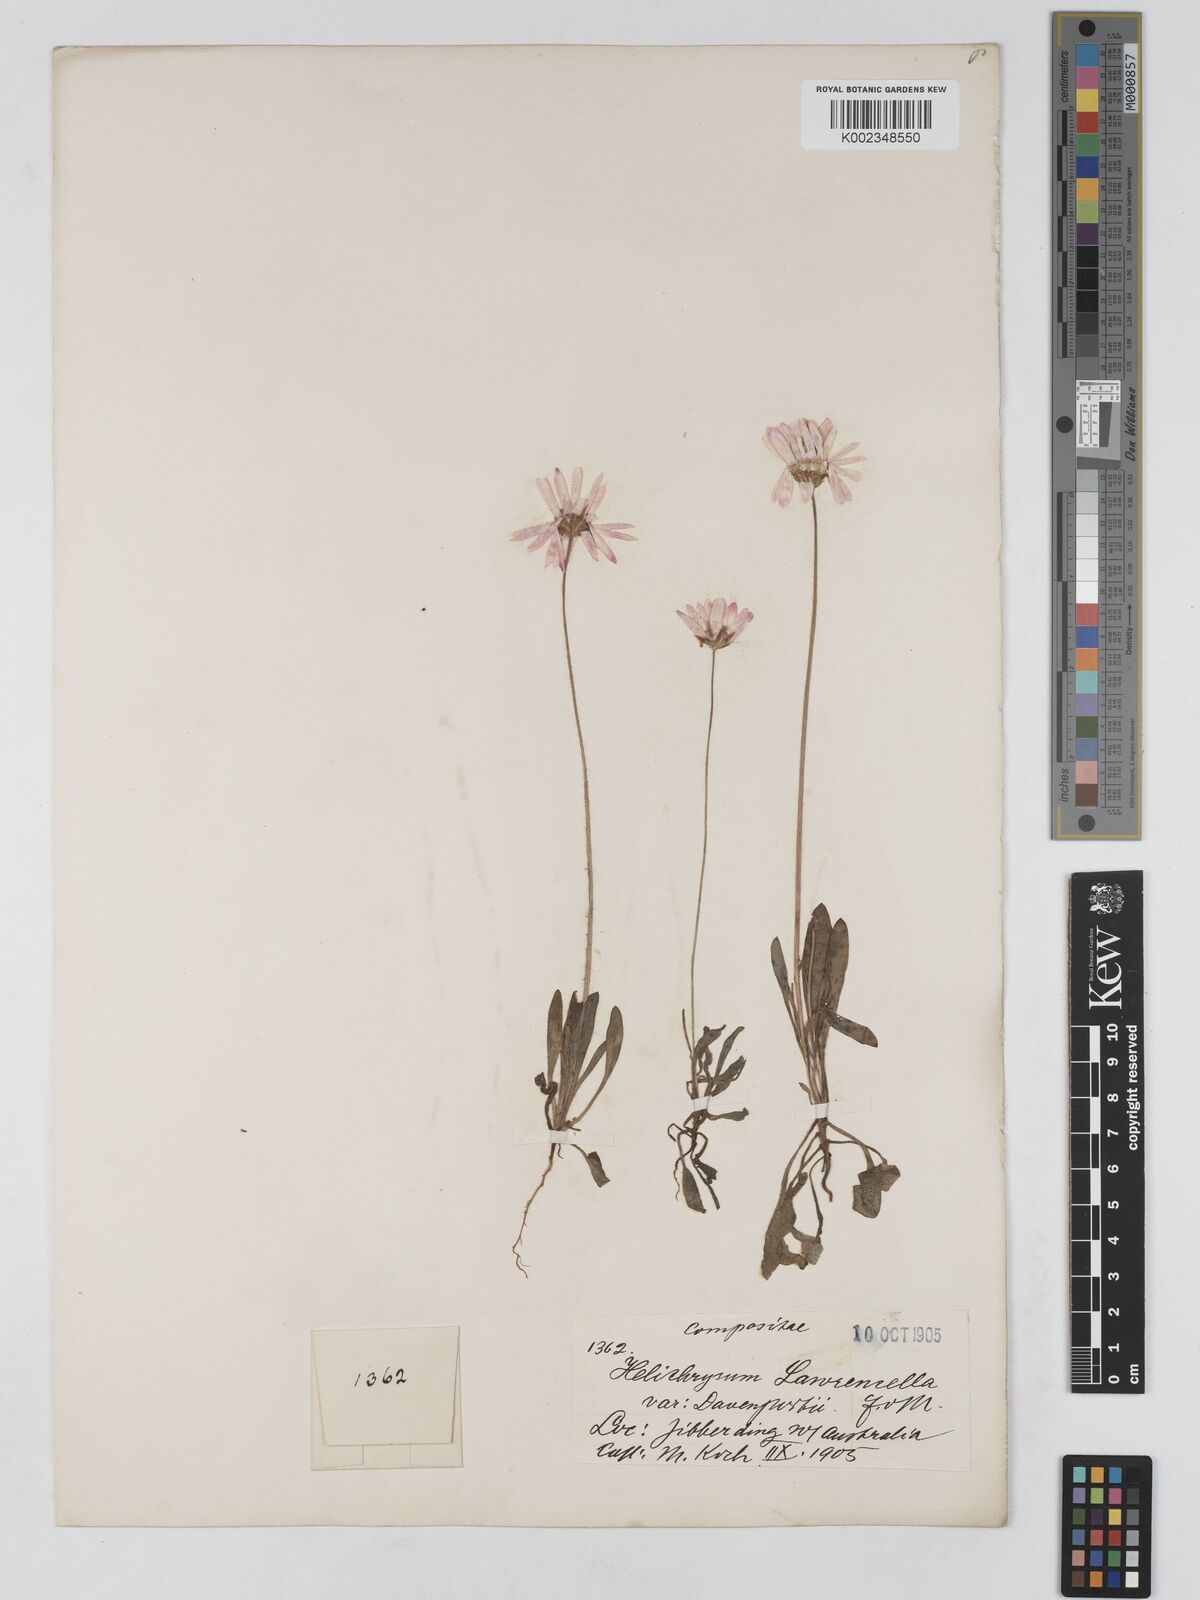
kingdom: Plantae
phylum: Tracheophyta
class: Magnoliopsida
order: Asterales
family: Asteraceae
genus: Lawrencella
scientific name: Lawrencella davenportii
